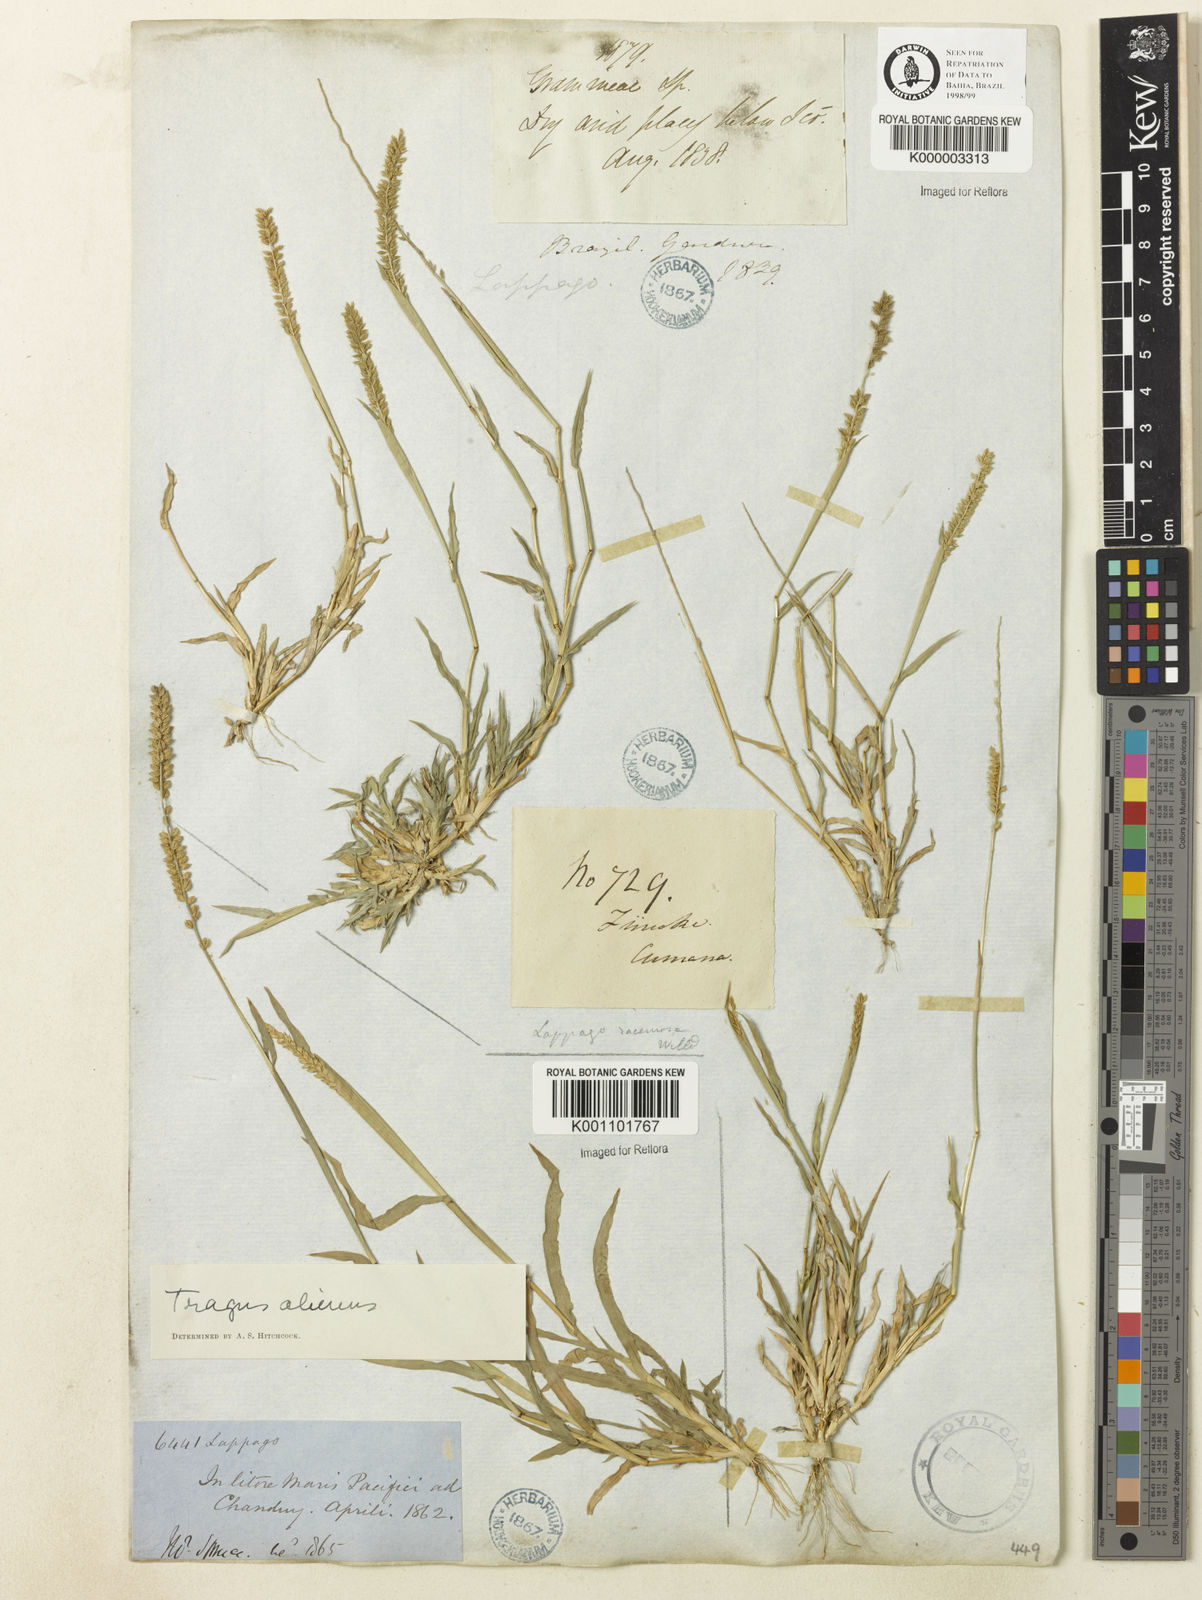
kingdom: Plantae
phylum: Tracheophyta
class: Liliopsida
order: Poales
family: Poaceae
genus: Tragus
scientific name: Tragus berteronianus
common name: African bur-grass
